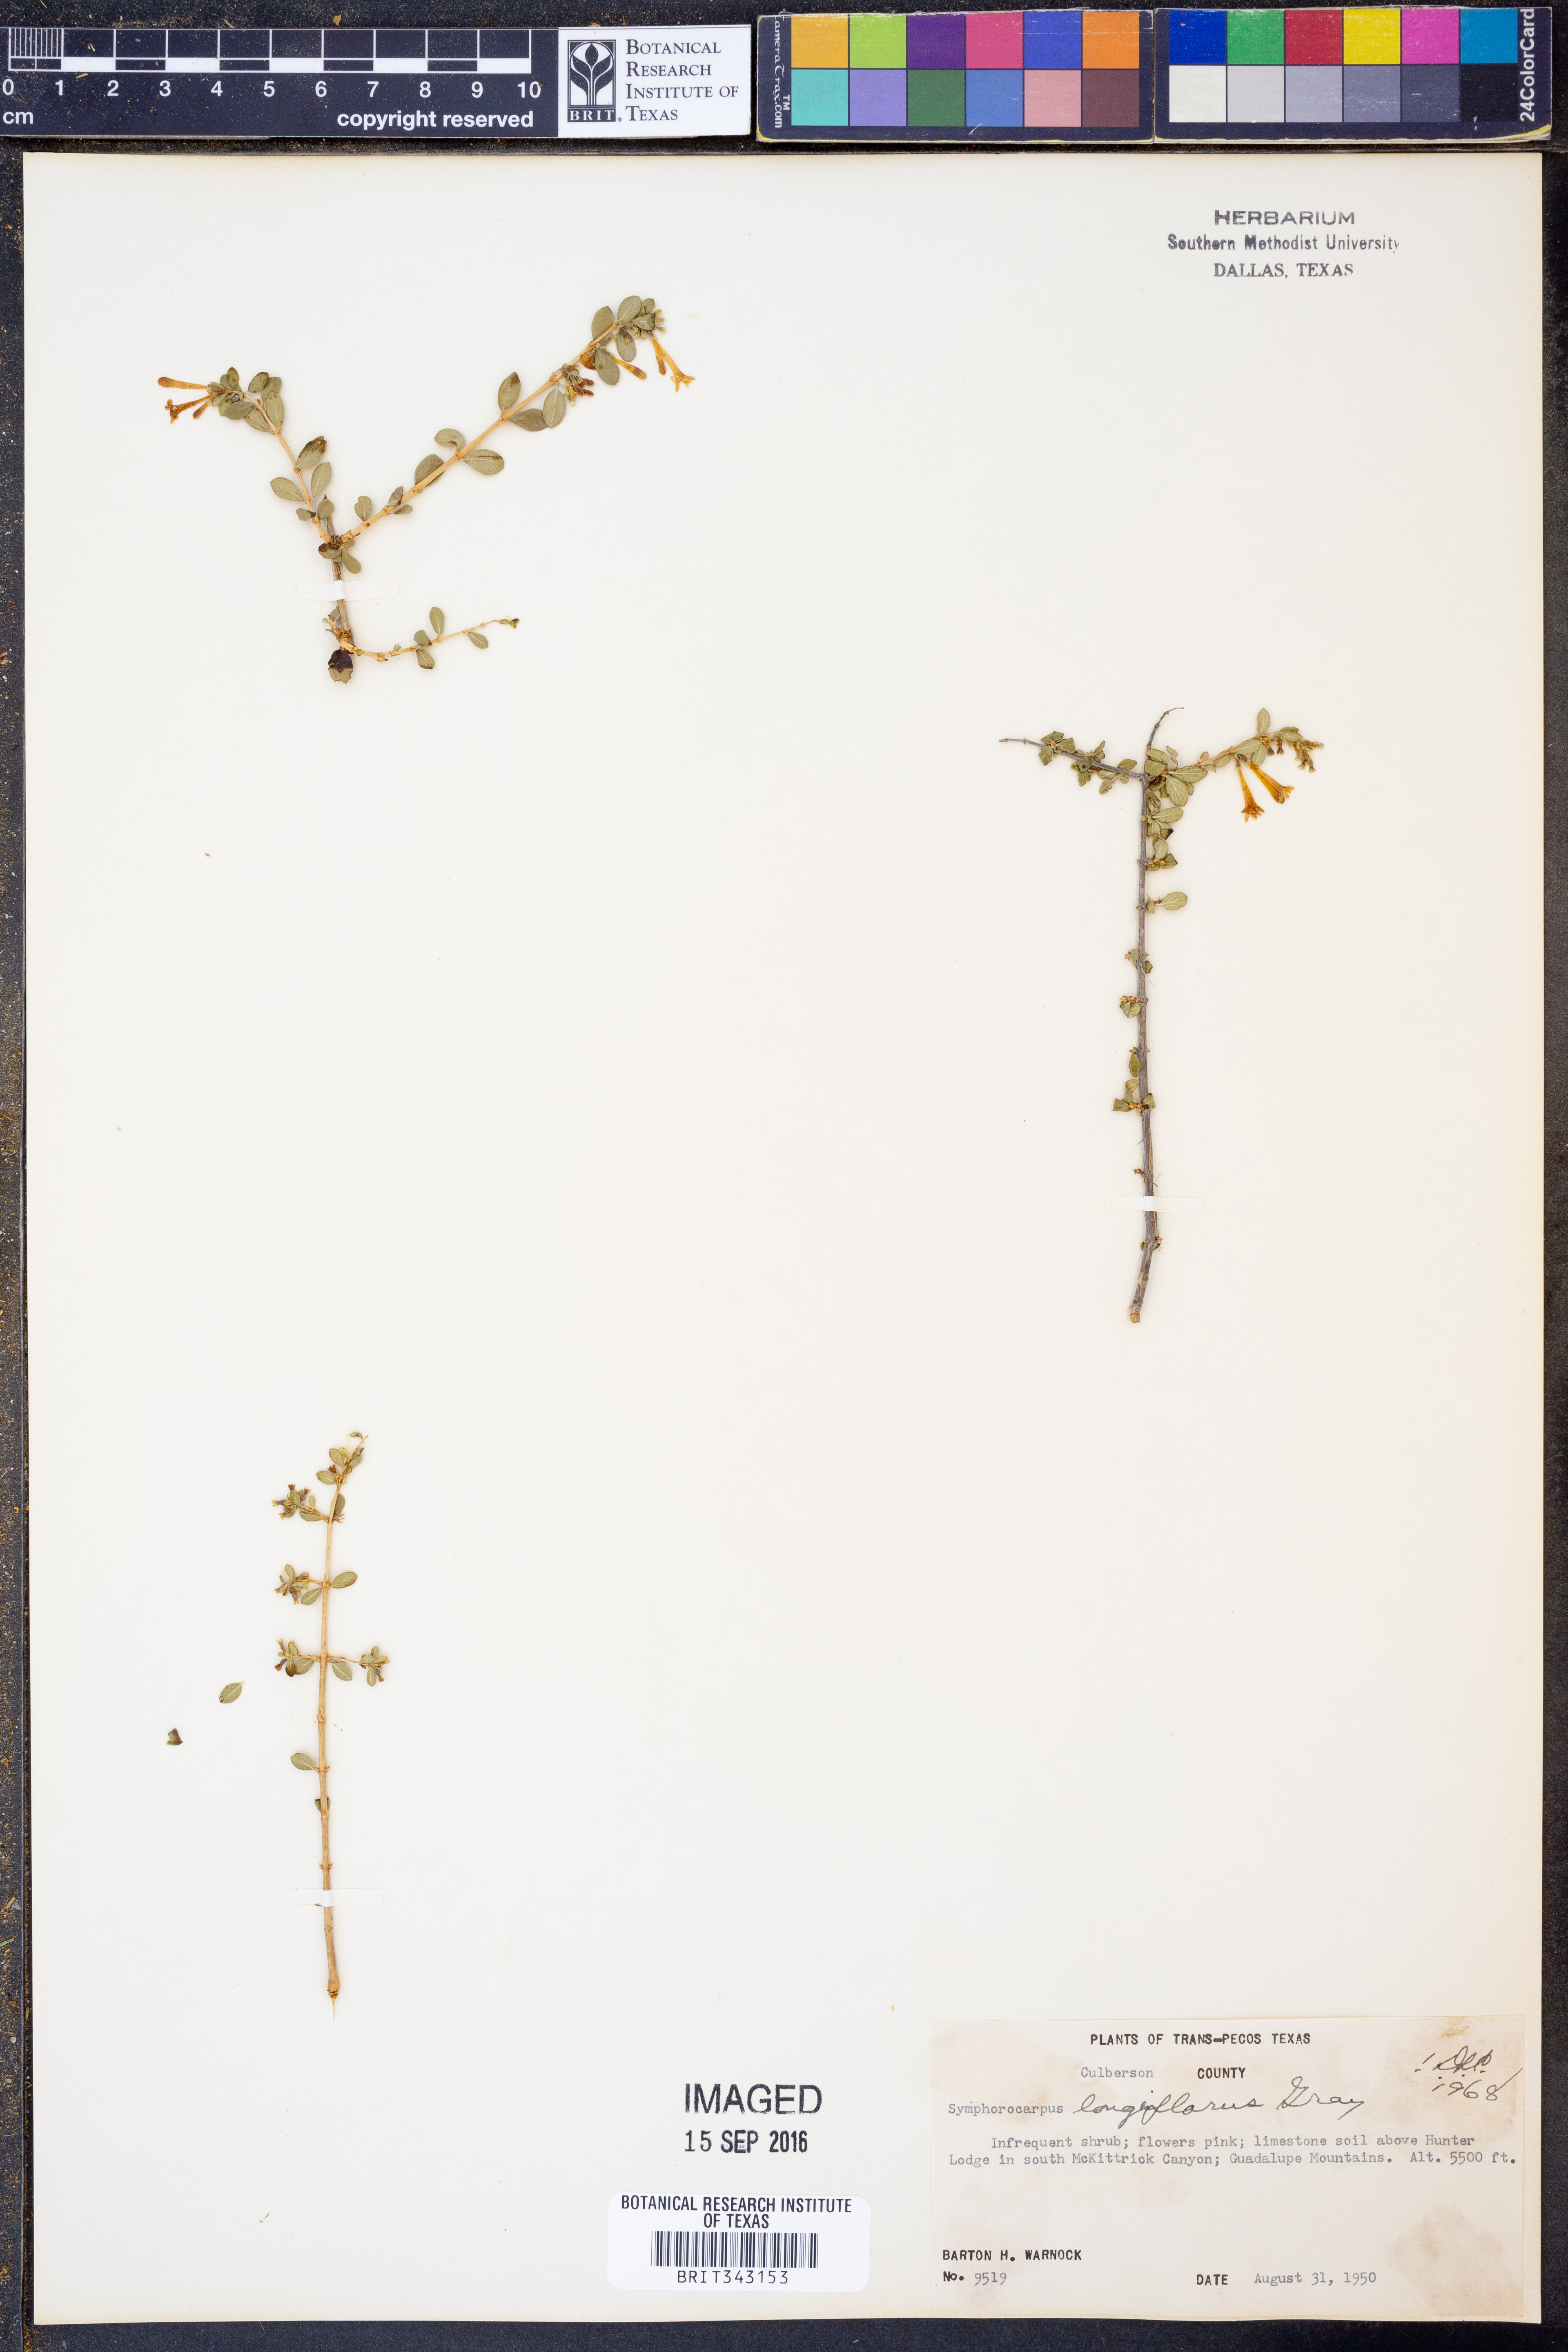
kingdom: Plantae
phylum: Tracheophyta
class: Magnoliopsida
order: Dipsacales
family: Caprifoliaceae
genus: Symphoricarpos
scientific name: Symphoricarpos longiflorus
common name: Fragrant snowberry
